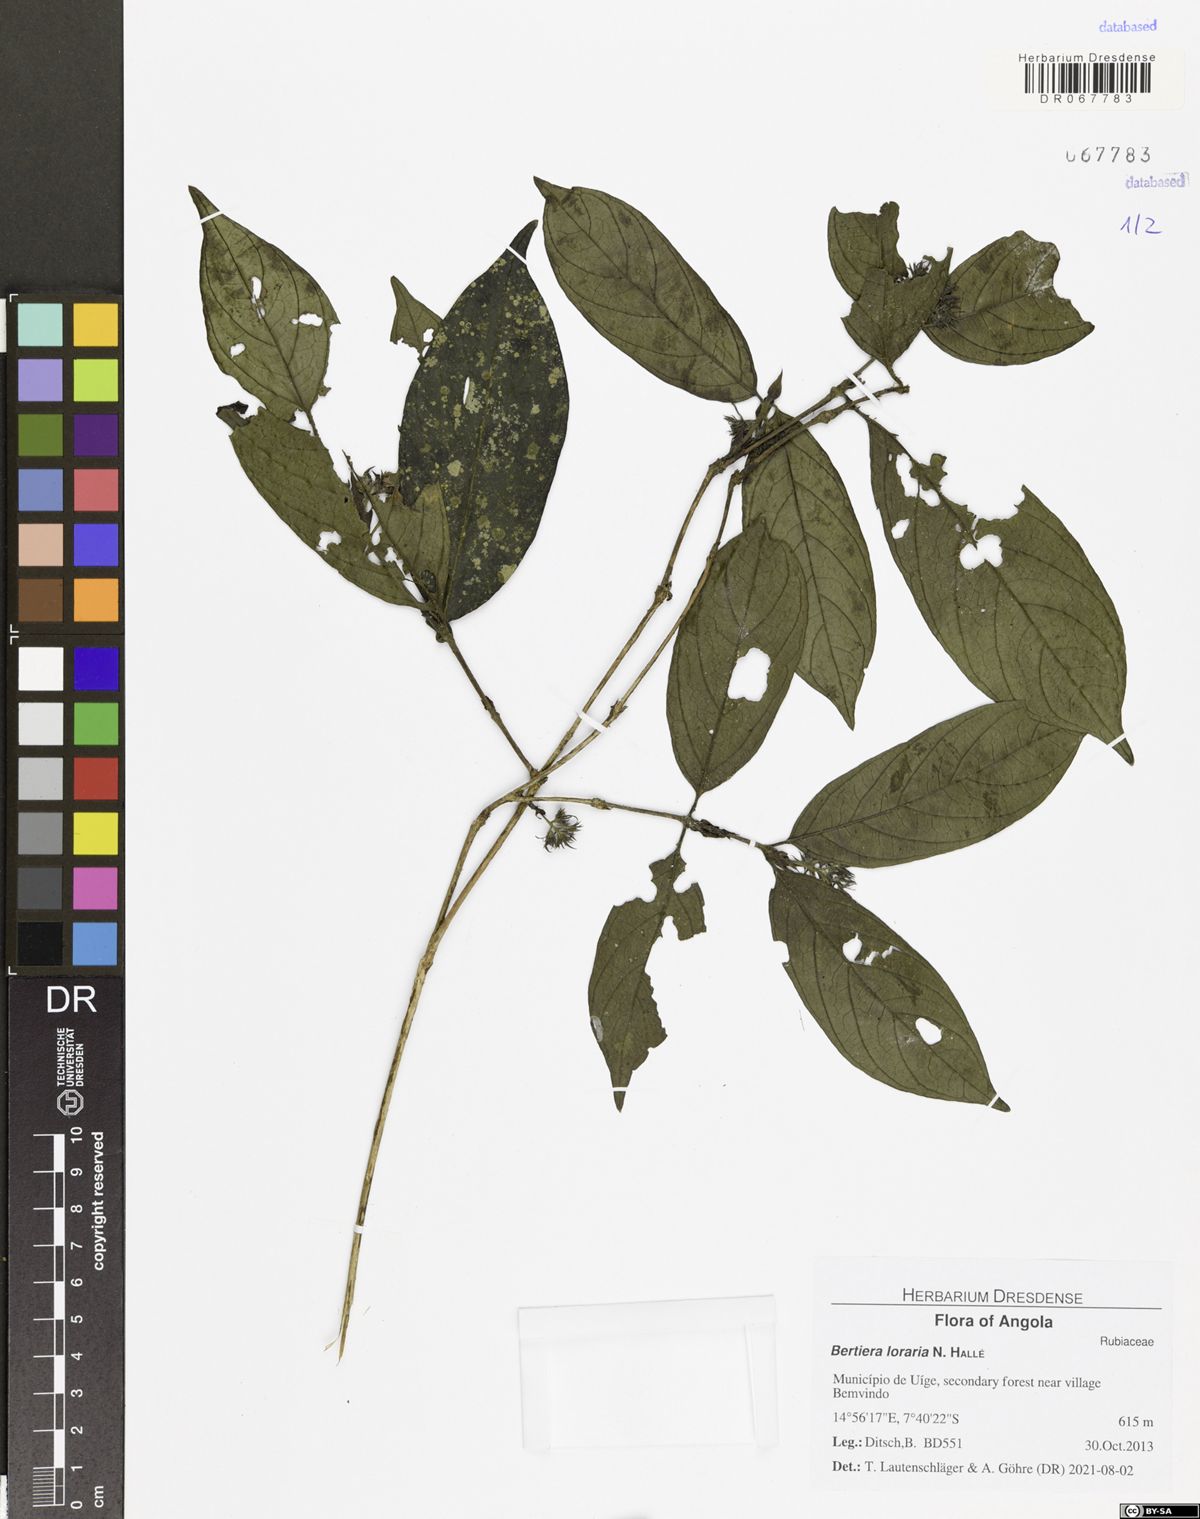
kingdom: Plantae
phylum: Tracheophyta
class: Magnoliopsida
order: Gentianales
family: Rubiaceae
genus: Bertiera
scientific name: Bertiera loraria
